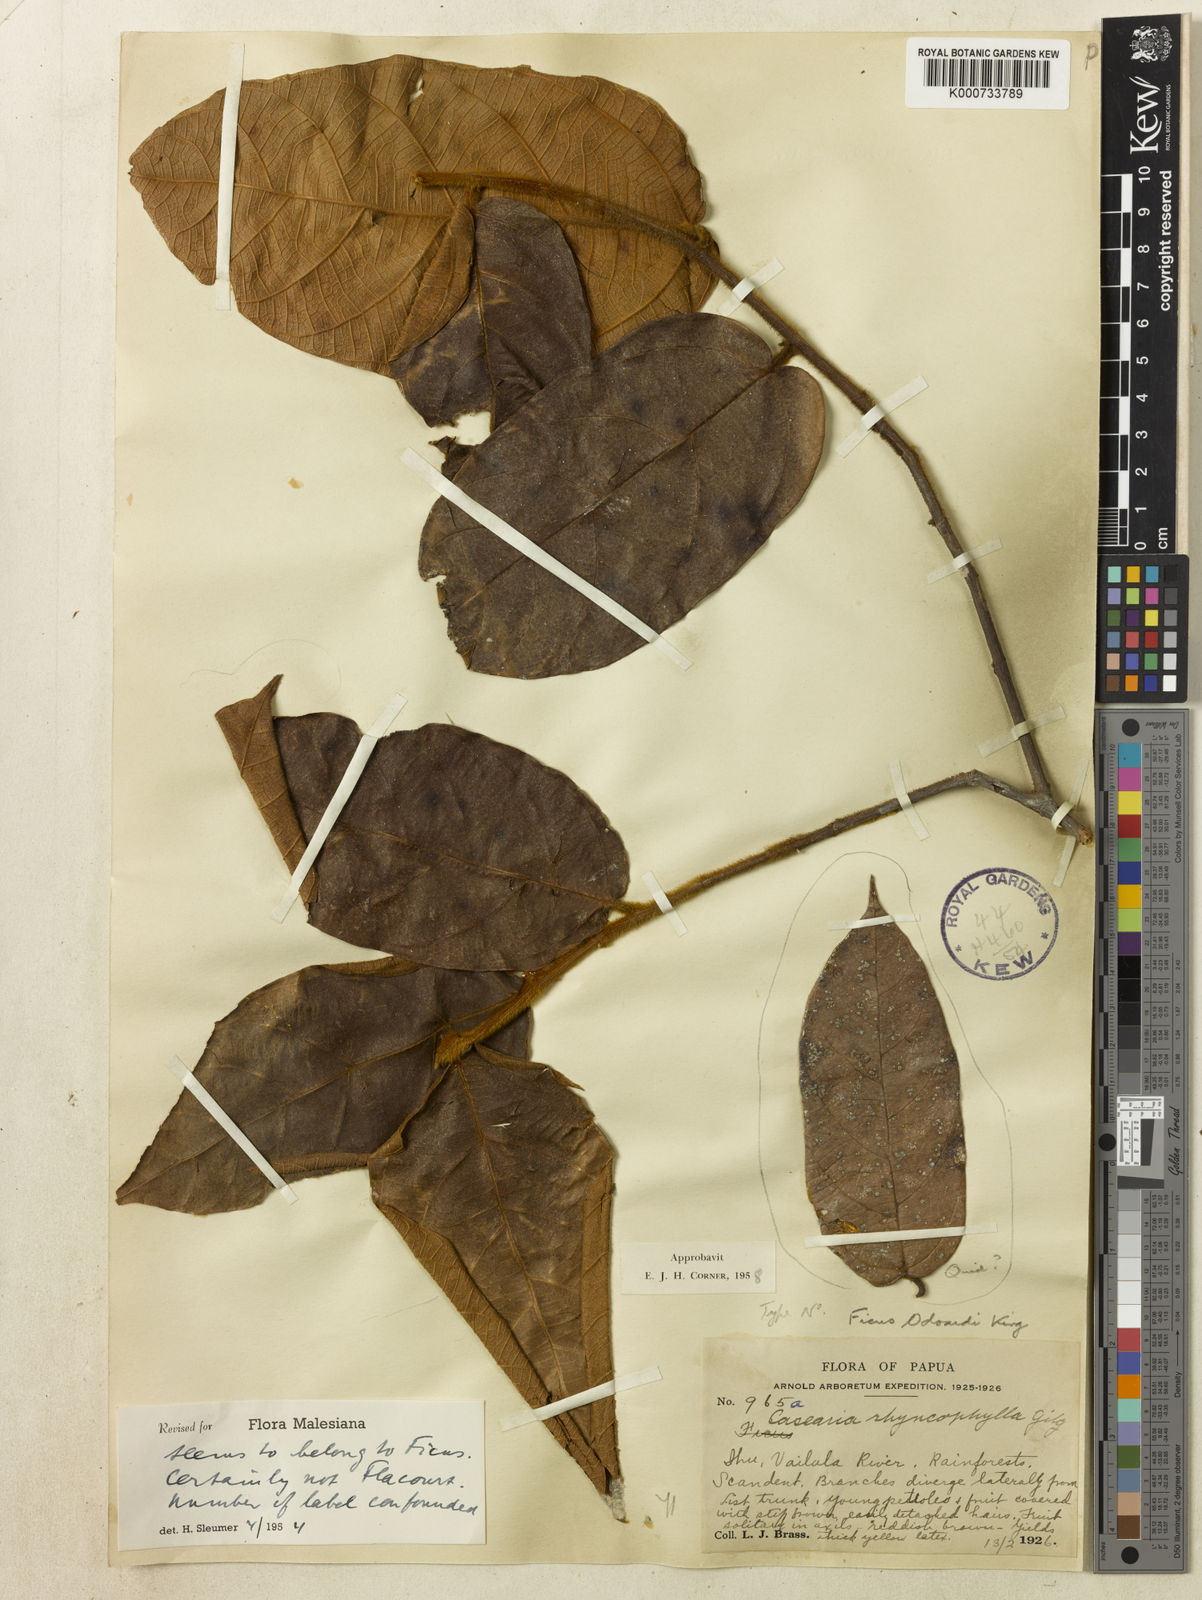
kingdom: Plantae
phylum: Tracheophyta
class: Magnoliopsida
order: Rosales
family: Moraceae
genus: Ficus
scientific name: Ficus odoardi
